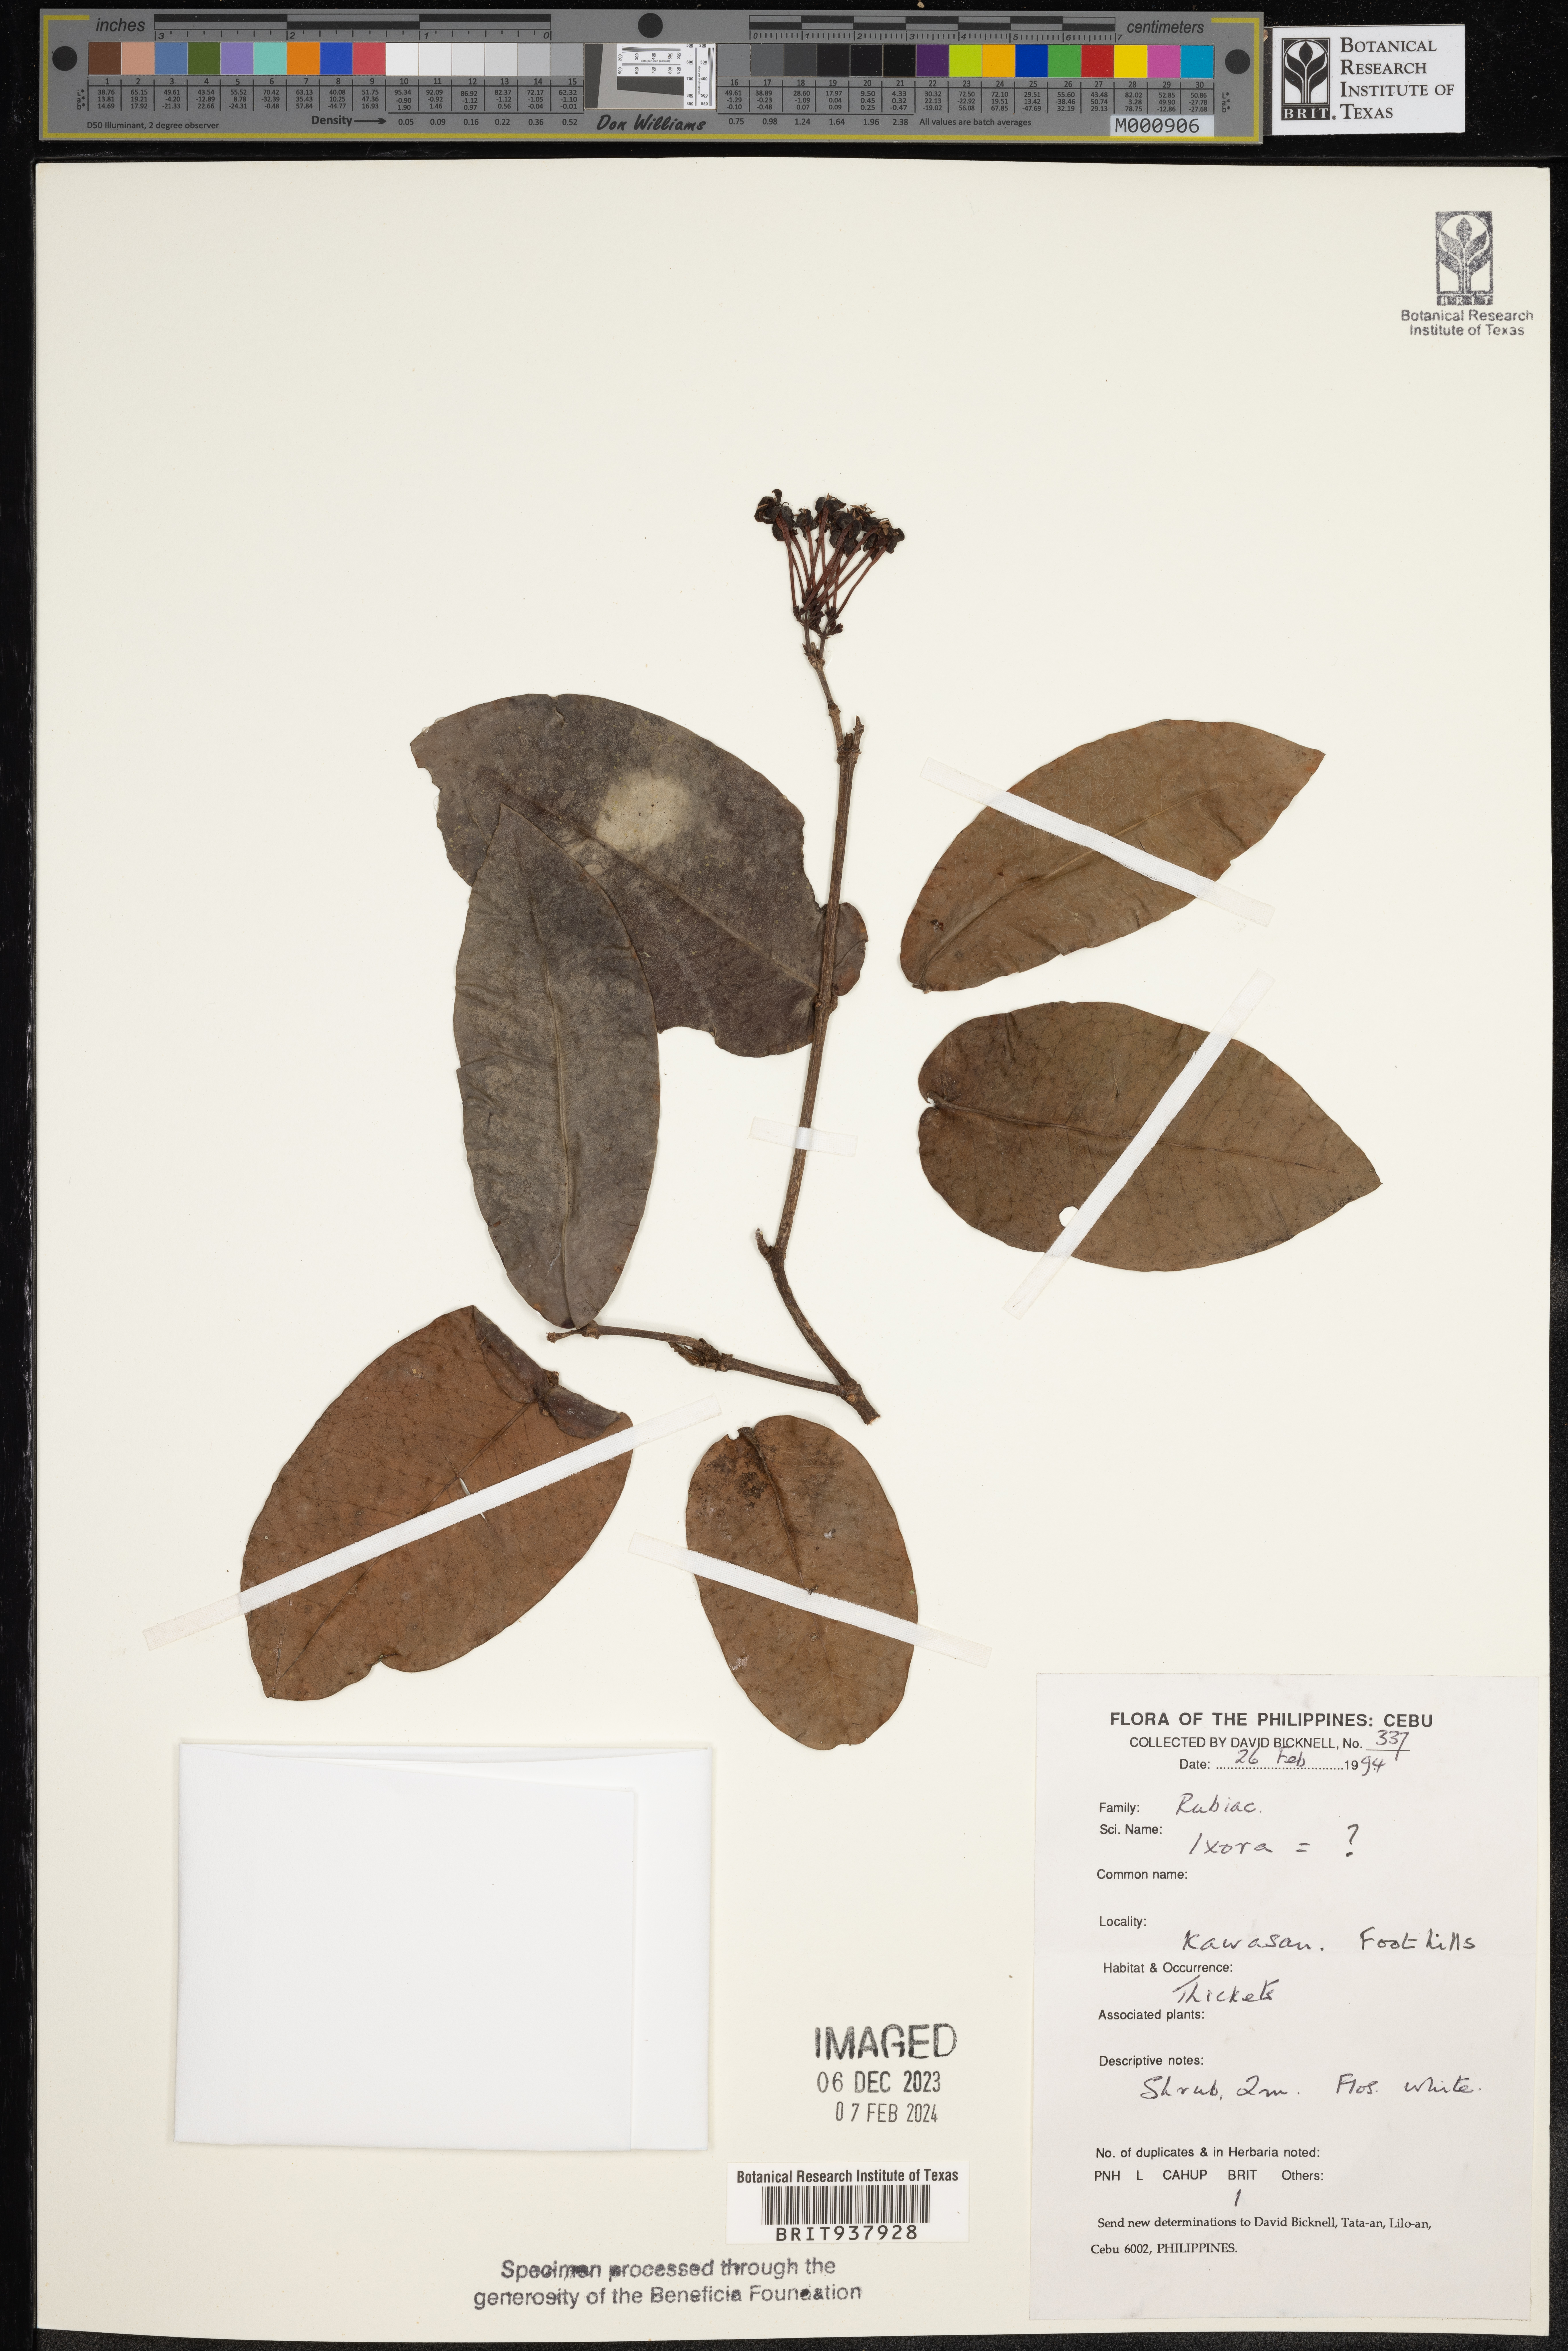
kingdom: Plantae
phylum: Tracheophyta
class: Magnoliopsida
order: Gentianales
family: Rubiaceae
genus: Ixora
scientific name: Ixora
